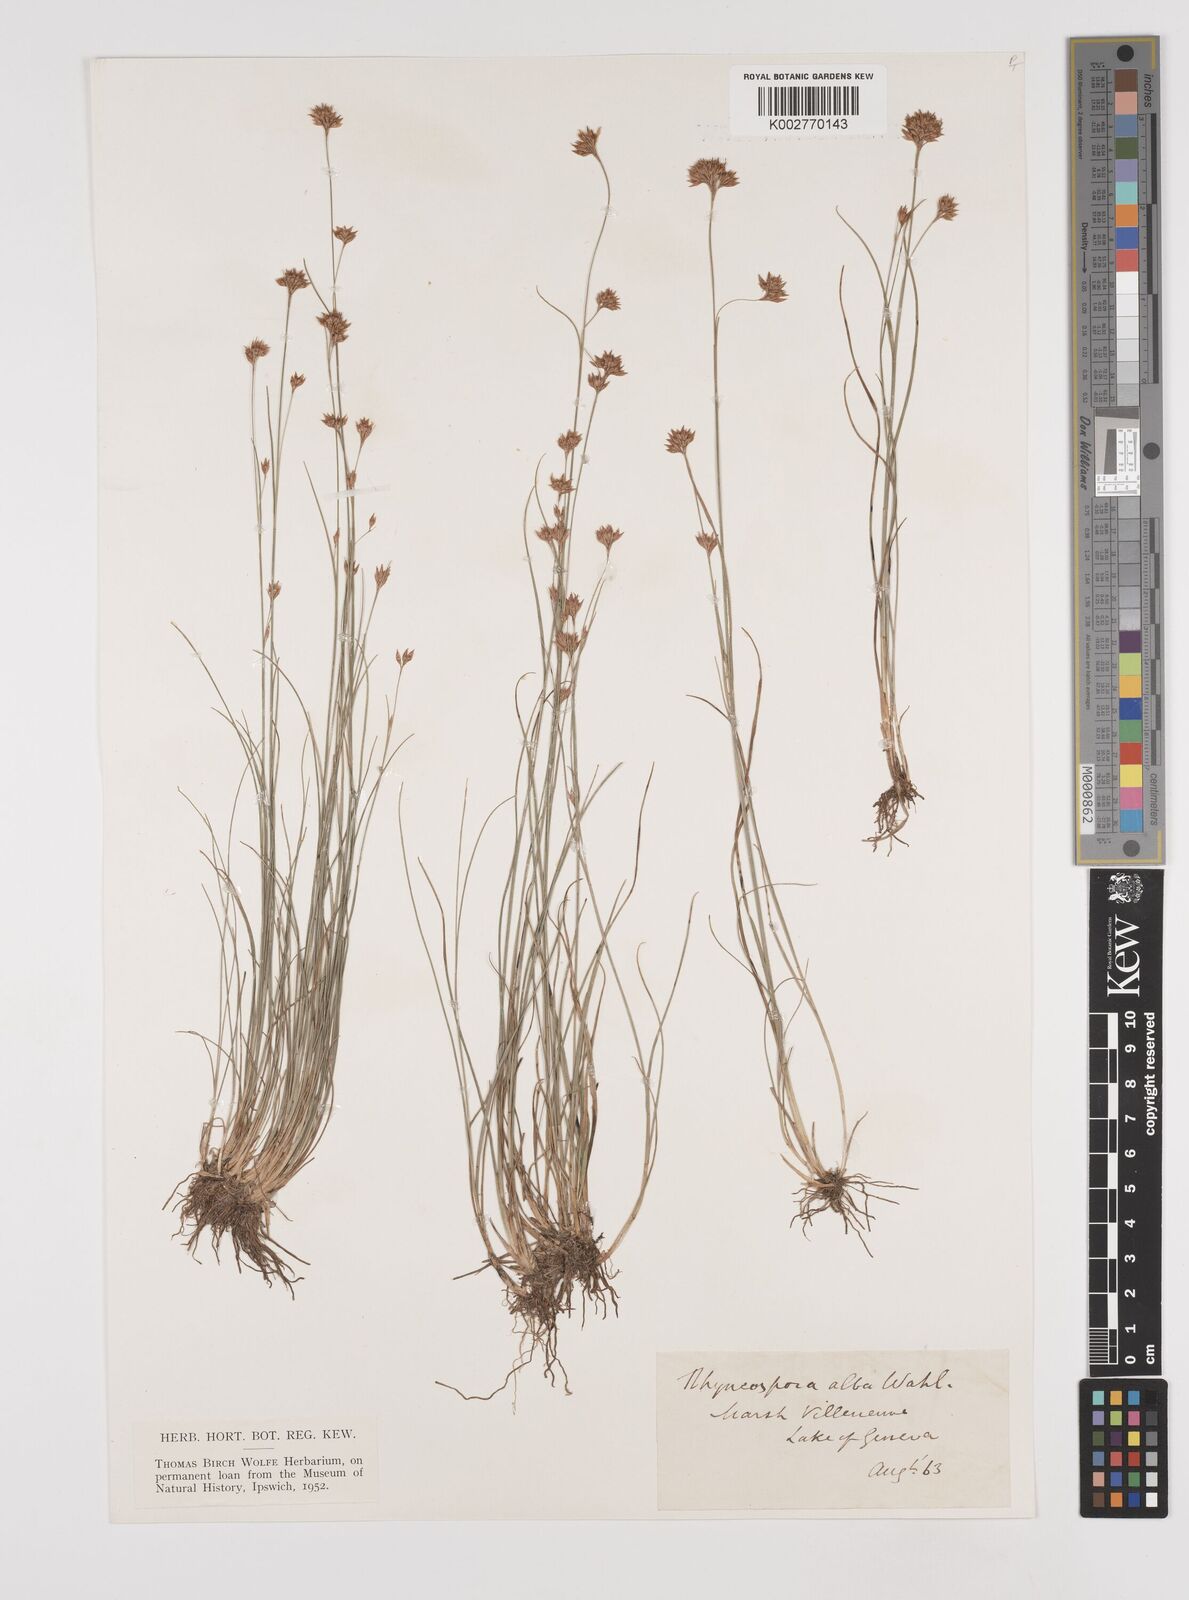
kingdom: Plantae
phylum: Tracheophyta
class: Liliopsida
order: Poales
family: Cyperaceae
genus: Rhynchospora
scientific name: Rhynchospora alba
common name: White beak-sedge
